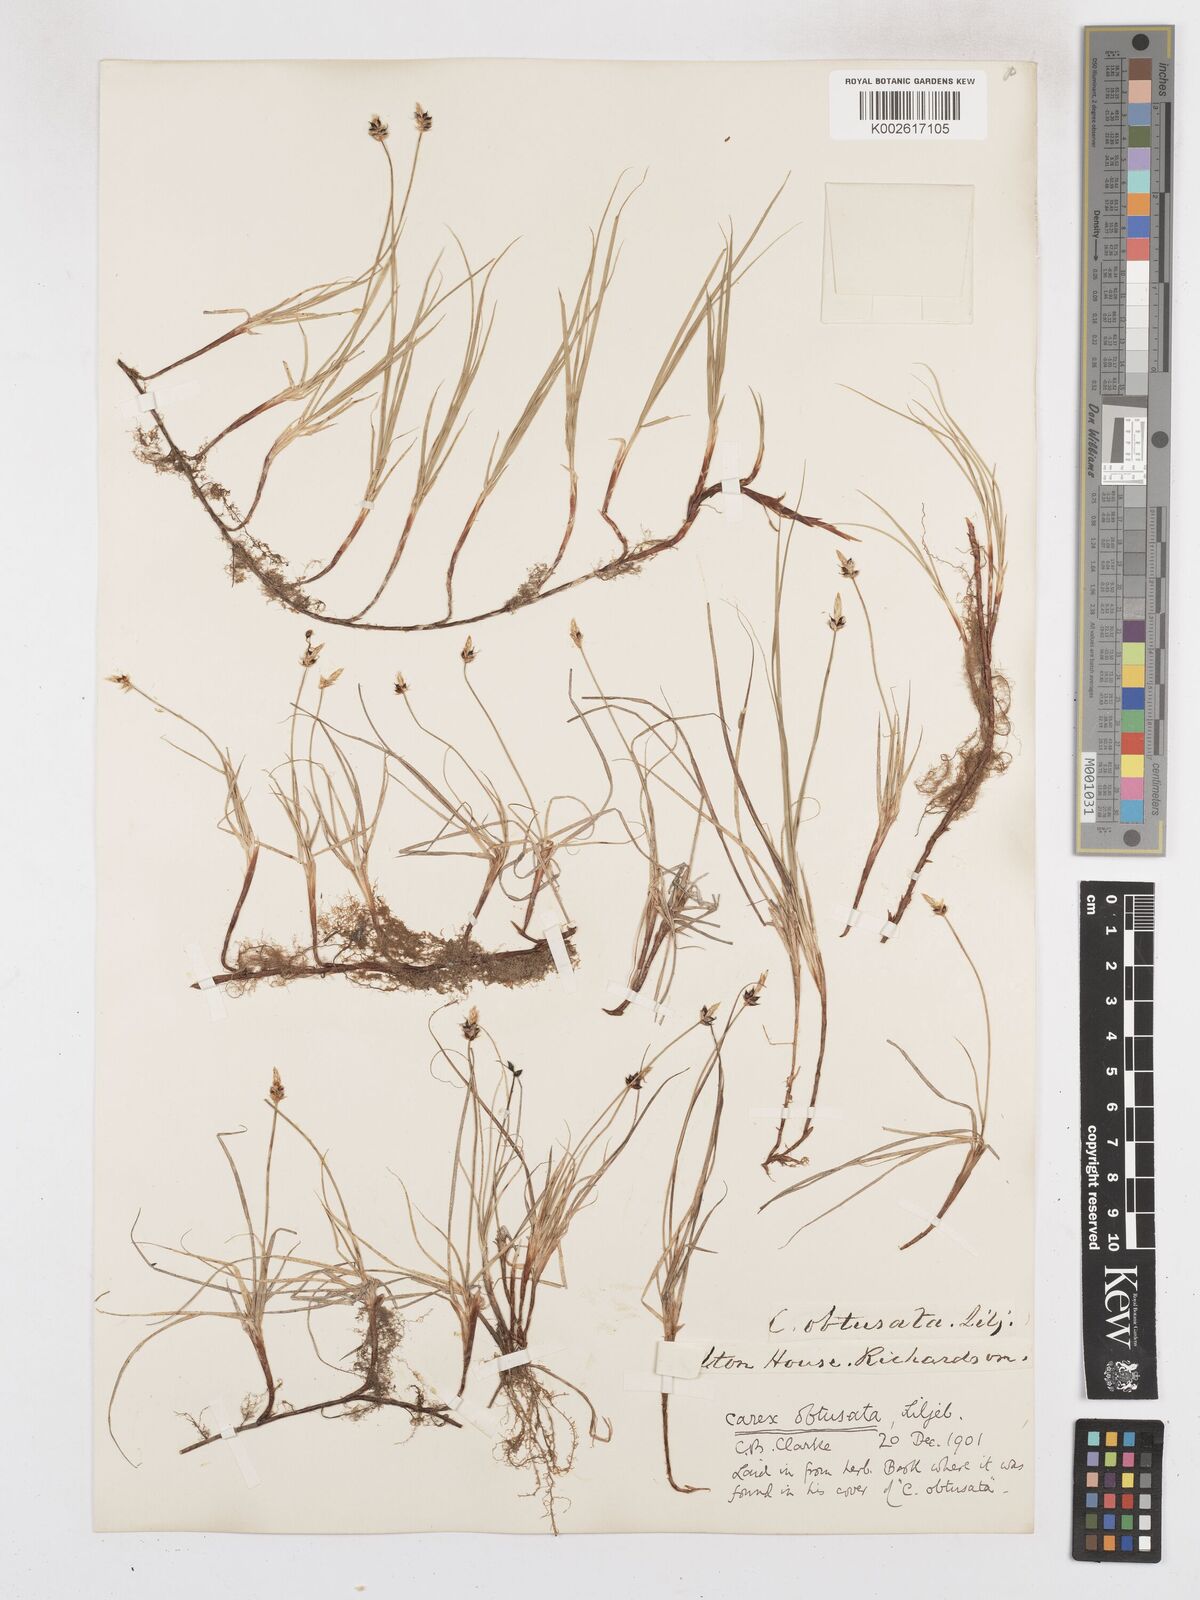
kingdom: Plantae
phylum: Tracheophyta
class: Liliopsida
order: Poales
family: Cyperaceae
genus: Carex
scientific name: Carex obtusata
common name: Blunt sedge
